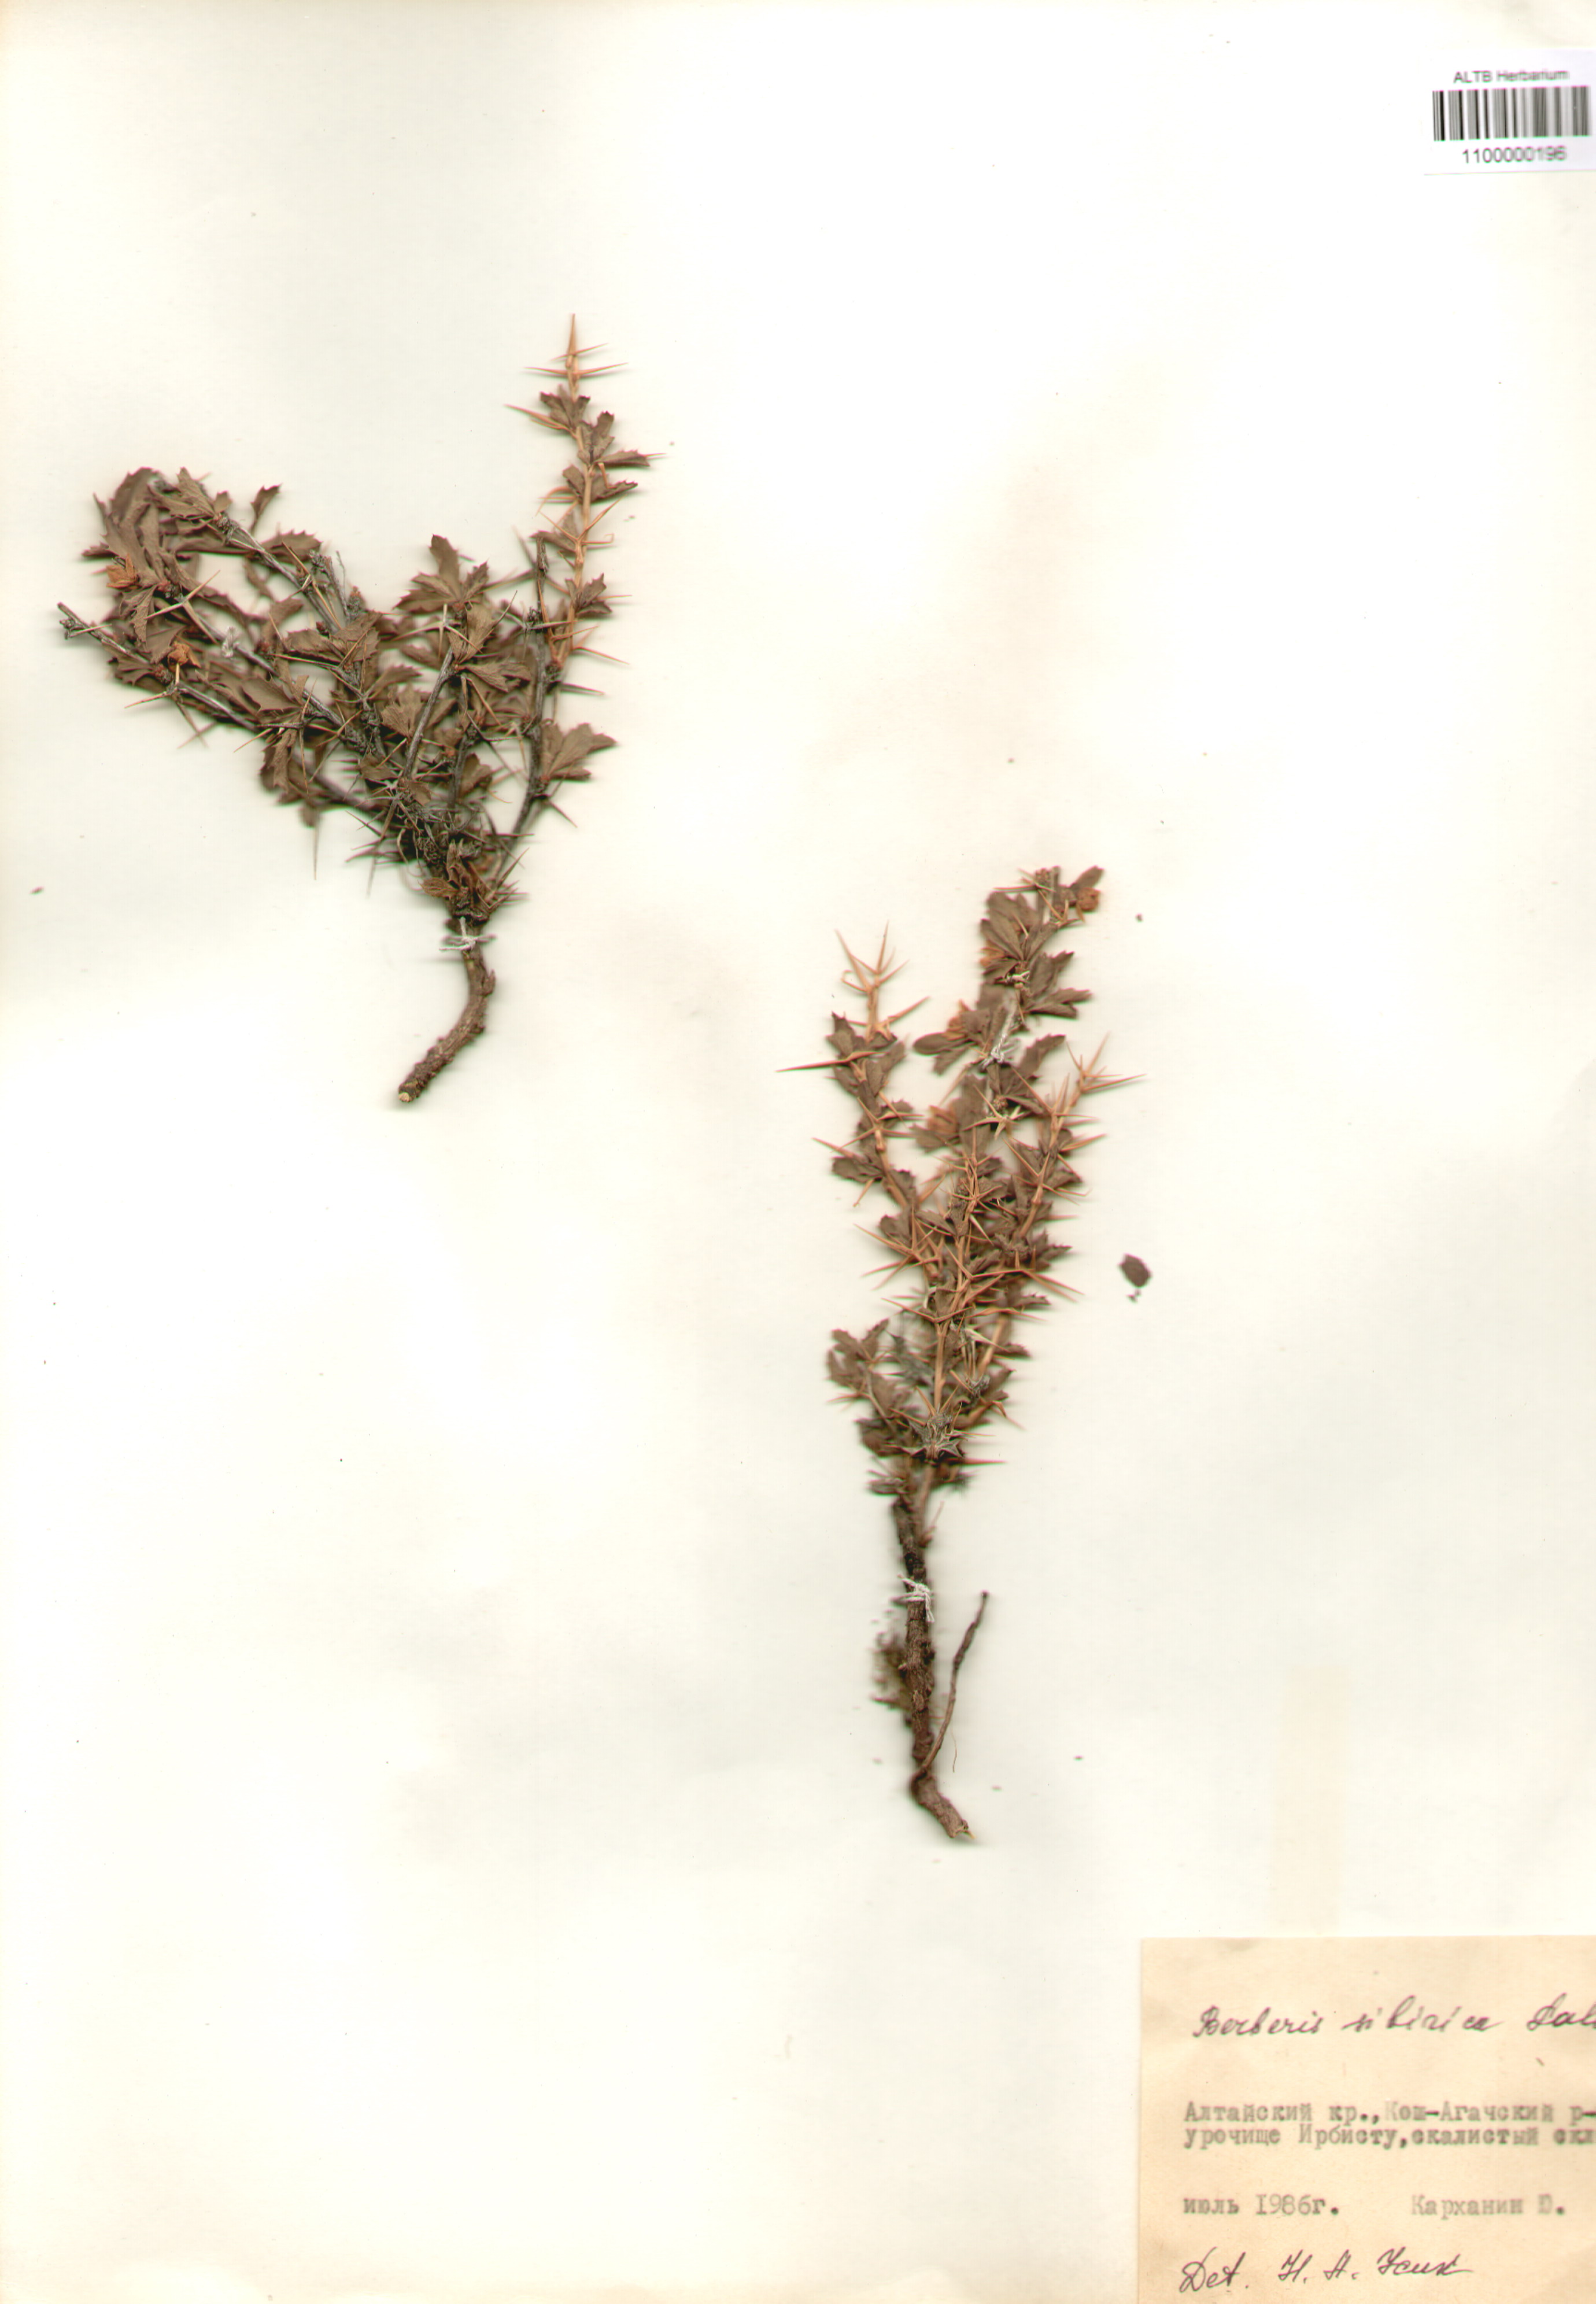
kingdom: Plantae
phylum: Tracheophyta
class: Magnoliopsida
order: Ranunculales
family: Berberidaceae
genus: Berberis
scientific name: Berberis sibirica
